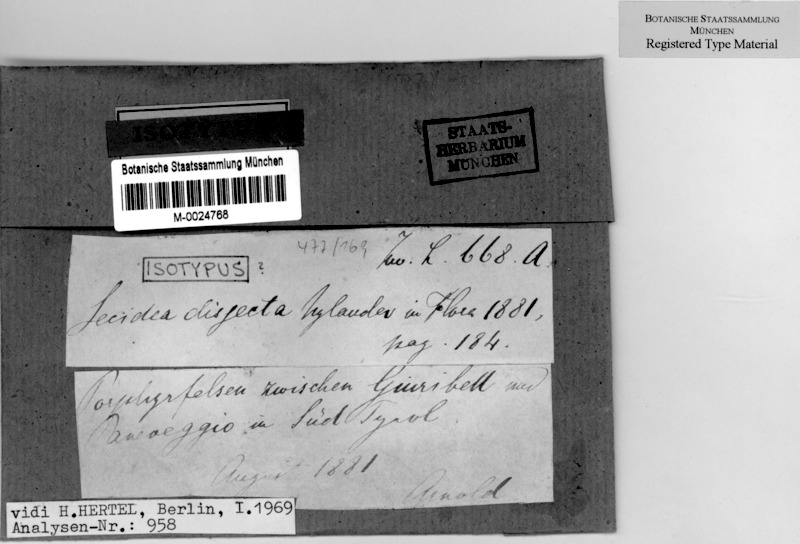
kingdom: Fungi
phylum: Ascomycota
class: Lecanoromycetes
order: Lecanorales
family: Lecanoraceae
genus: Miriquidica
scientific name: Miriquidica disjecta
